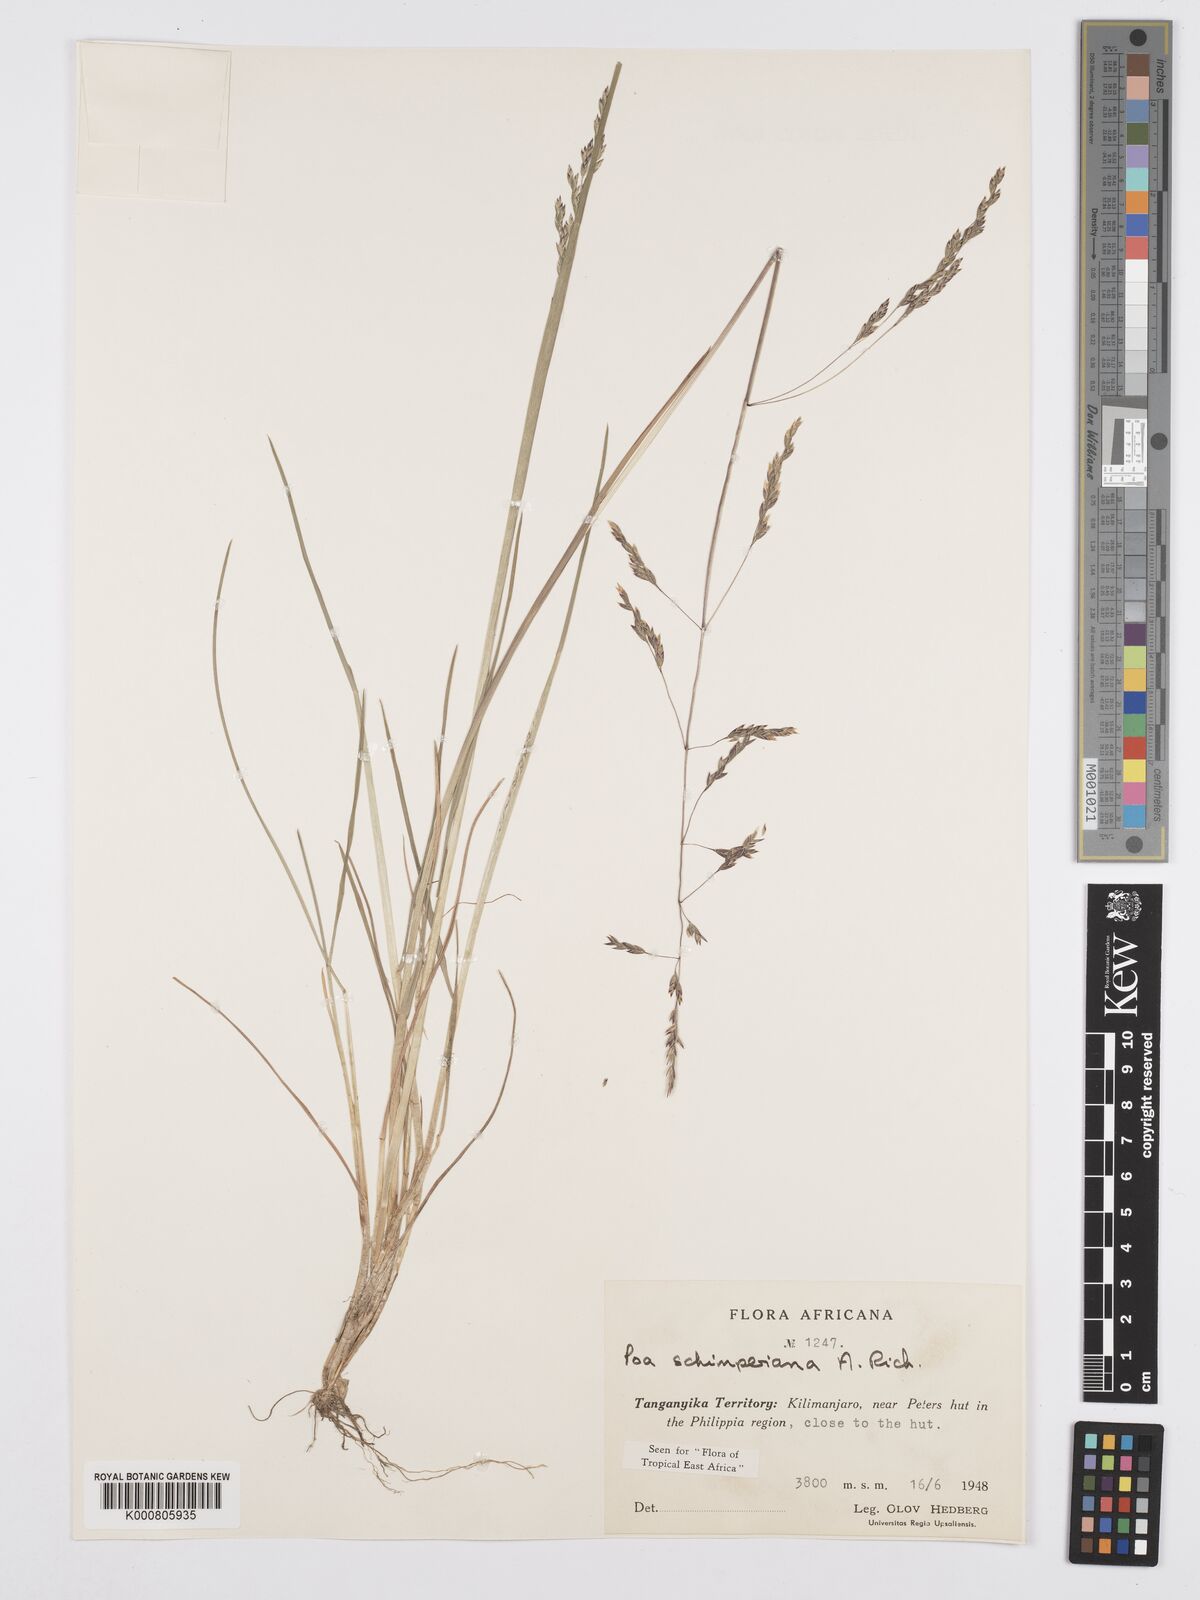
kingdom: Plantae
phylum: Tracheophyta
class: Liliopsida
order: Poales
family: Poaceae
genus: Poa
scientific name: Poa schimperiana
